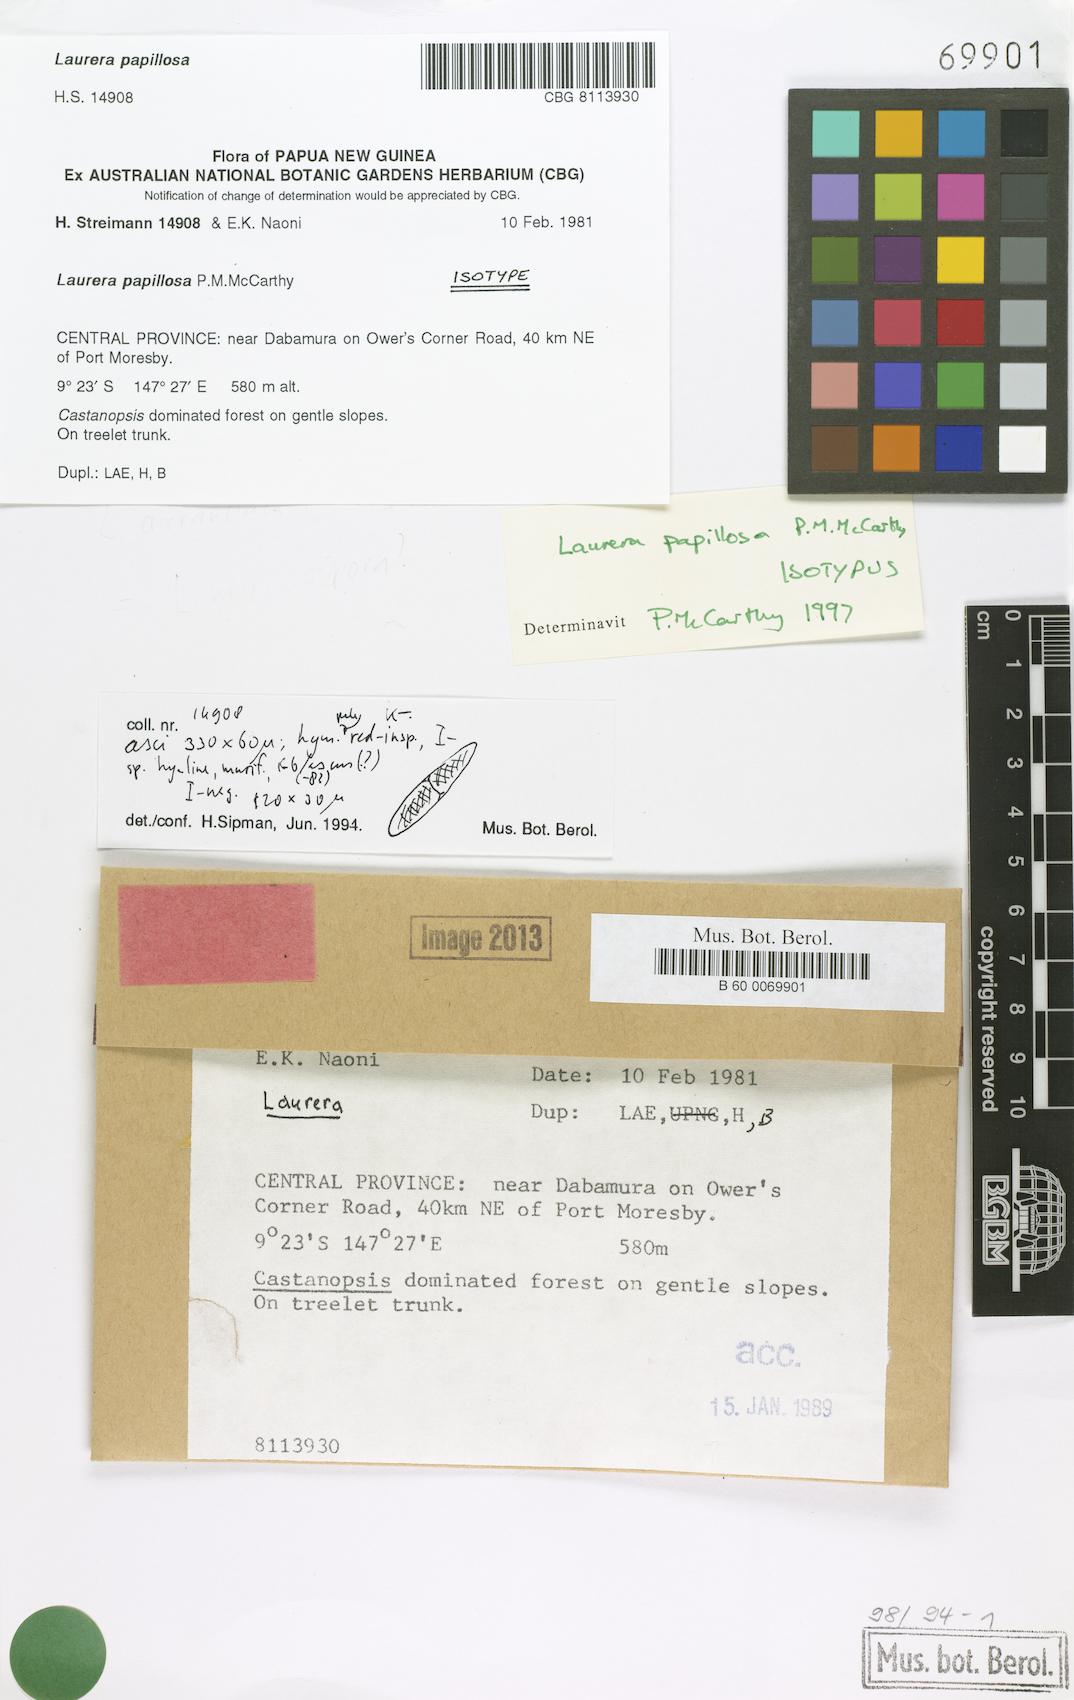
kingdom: Fungi
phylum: Ascomycota
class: Dothideomycetes
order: Trypetheliales
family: Trypetheliaceae
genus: Astrothelium
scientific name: Astrothelium papillosum
